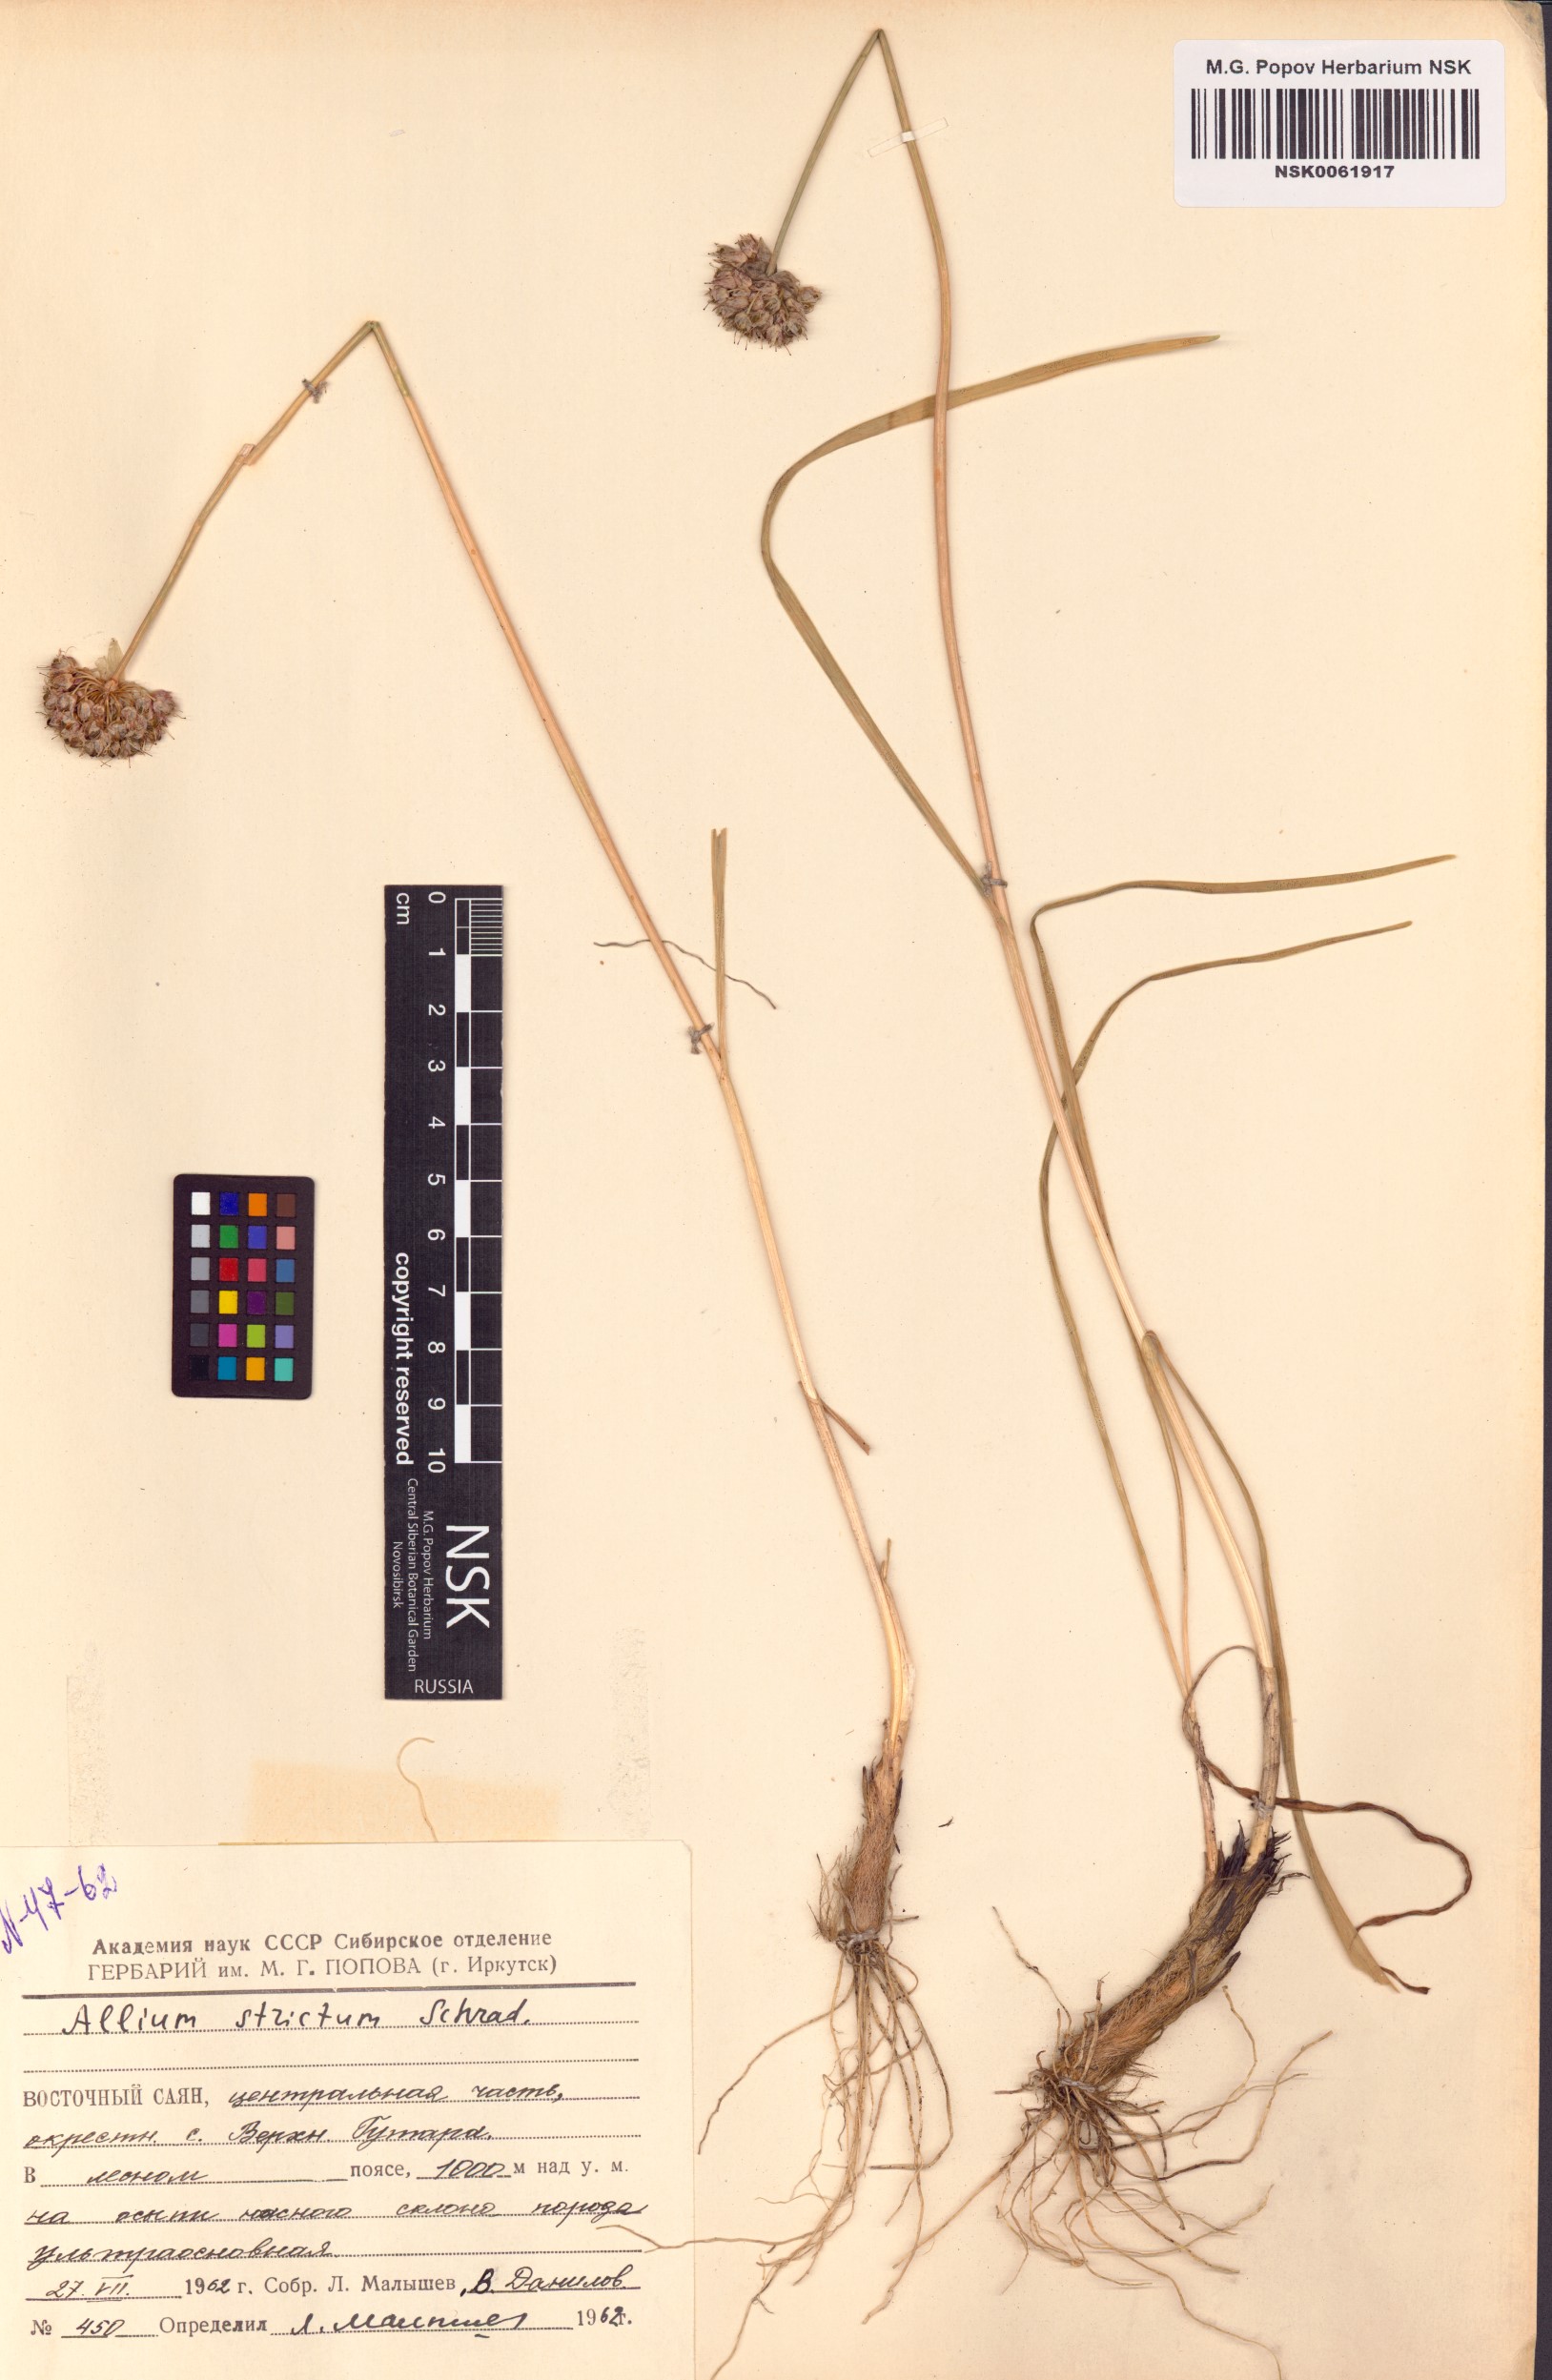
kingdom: Plantae
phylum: Tracheophyta
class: Liliopsida
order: Asparagales
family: Amaryllidaceae
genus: Allium
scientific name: Allium strictum
